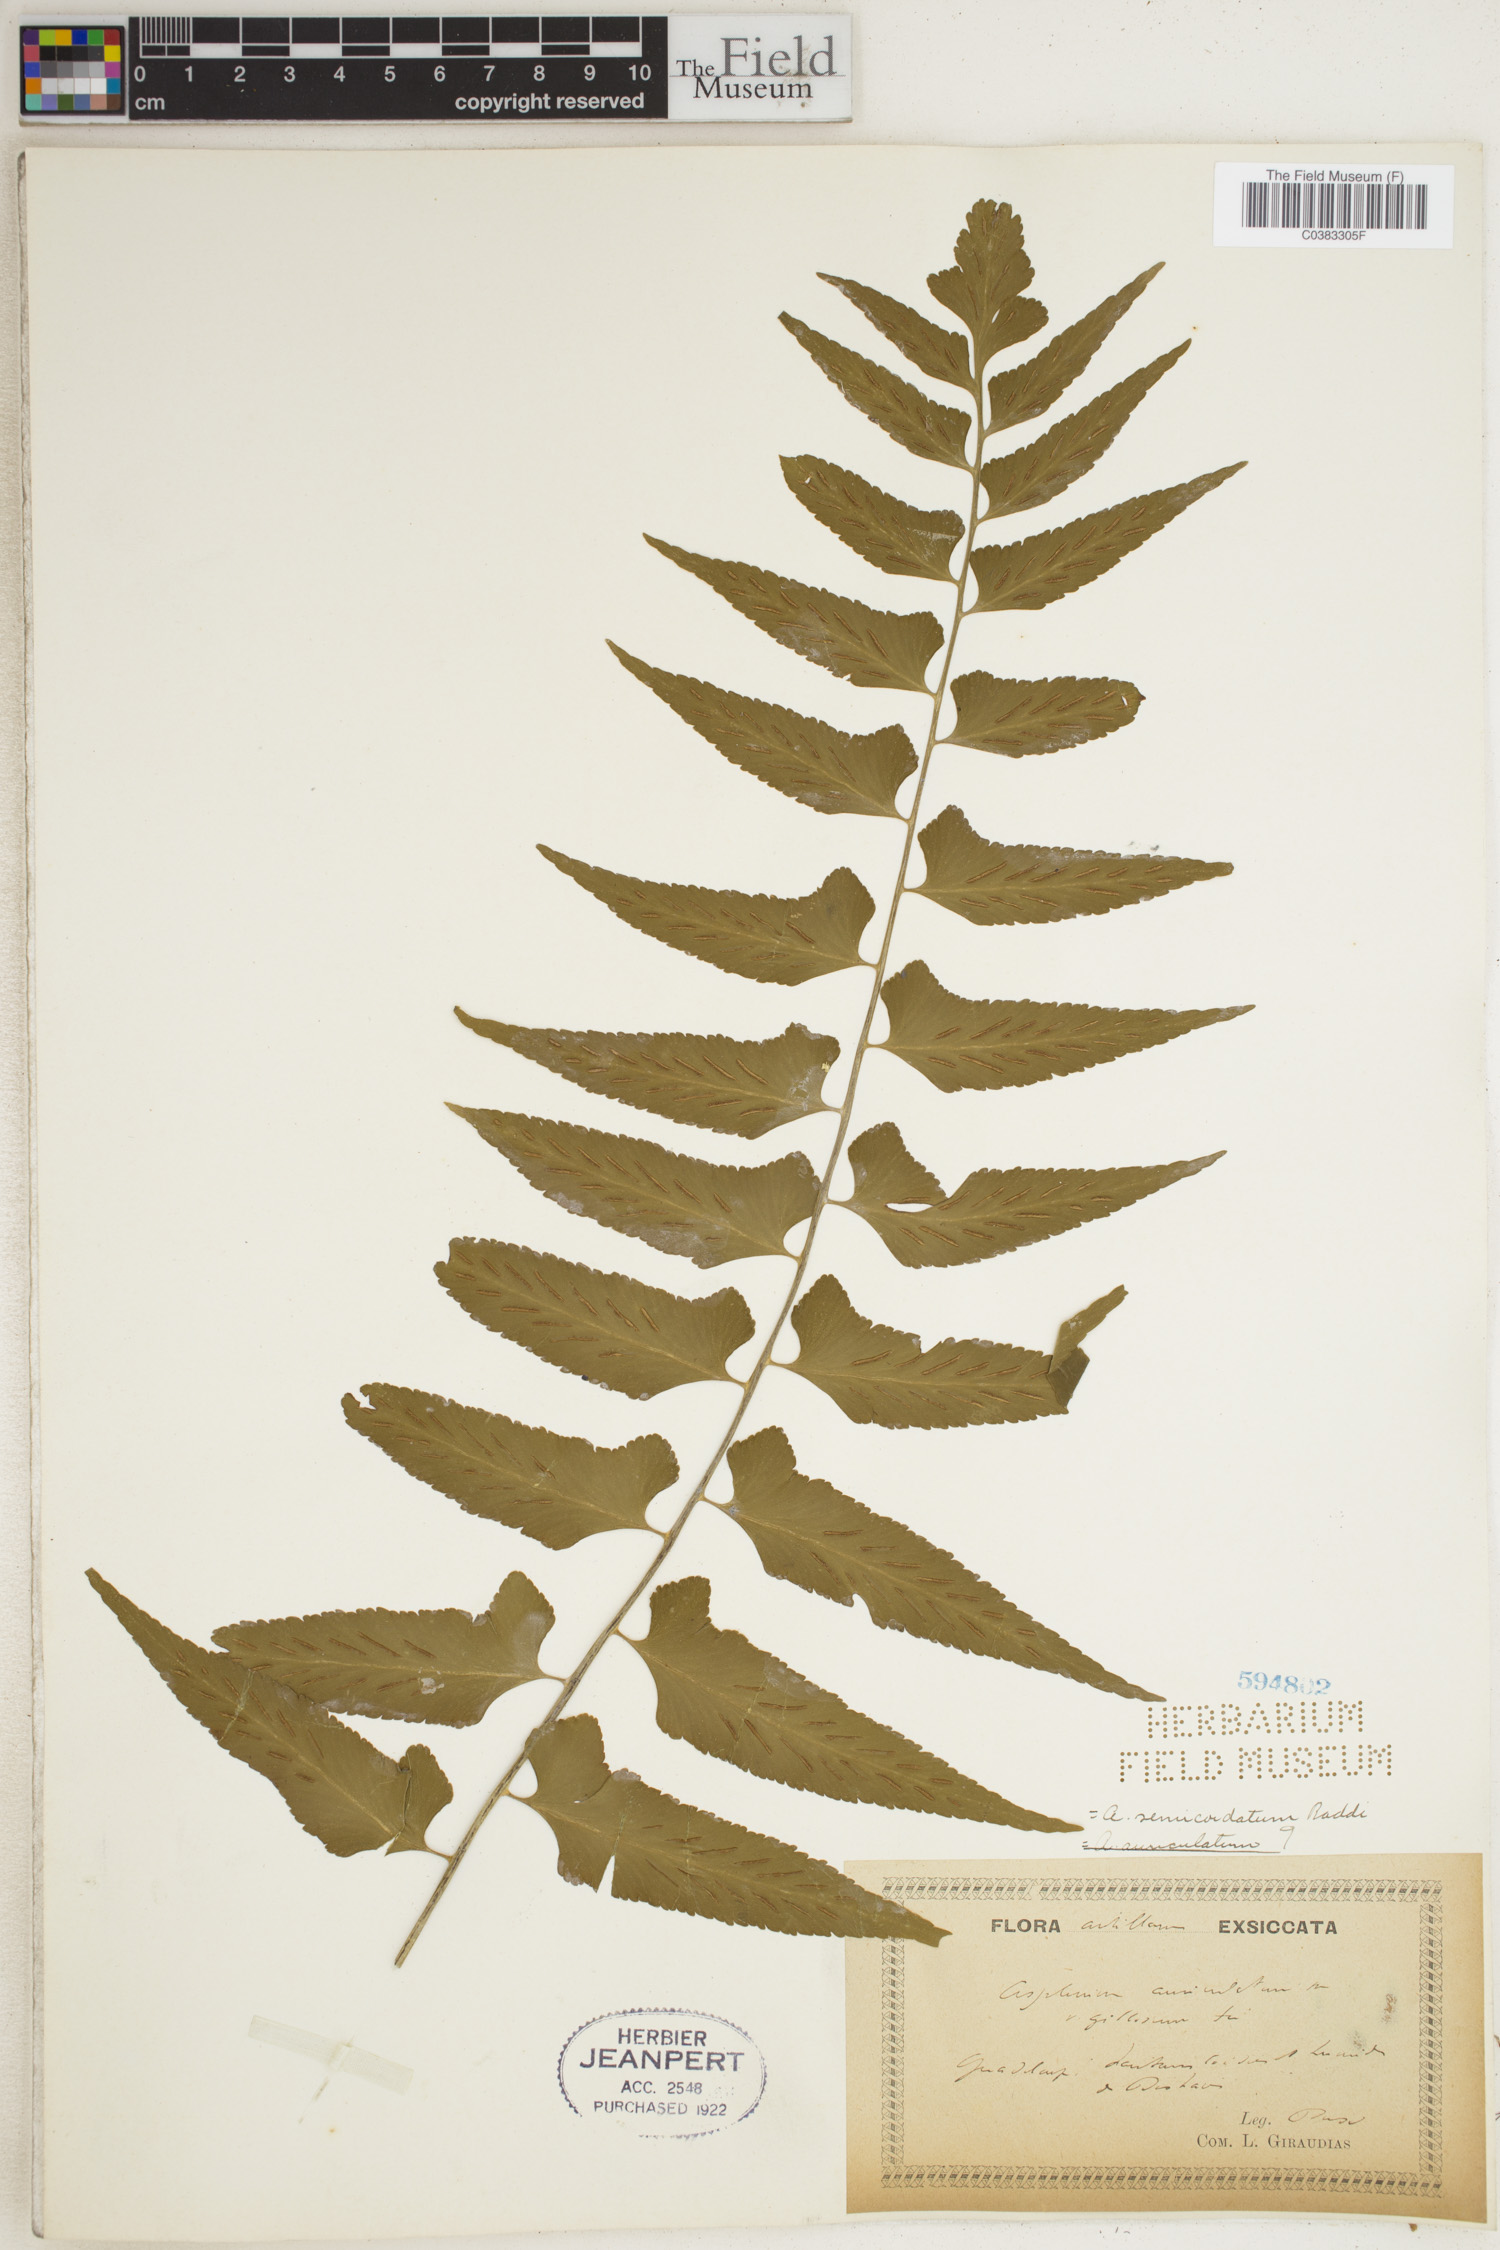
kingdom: Plantae
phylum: Tracheophyta
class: Polypodiopsida
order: Polypodiales
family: Aspleniaceae
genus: Asplenium
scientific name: Asplenium auriculatum
